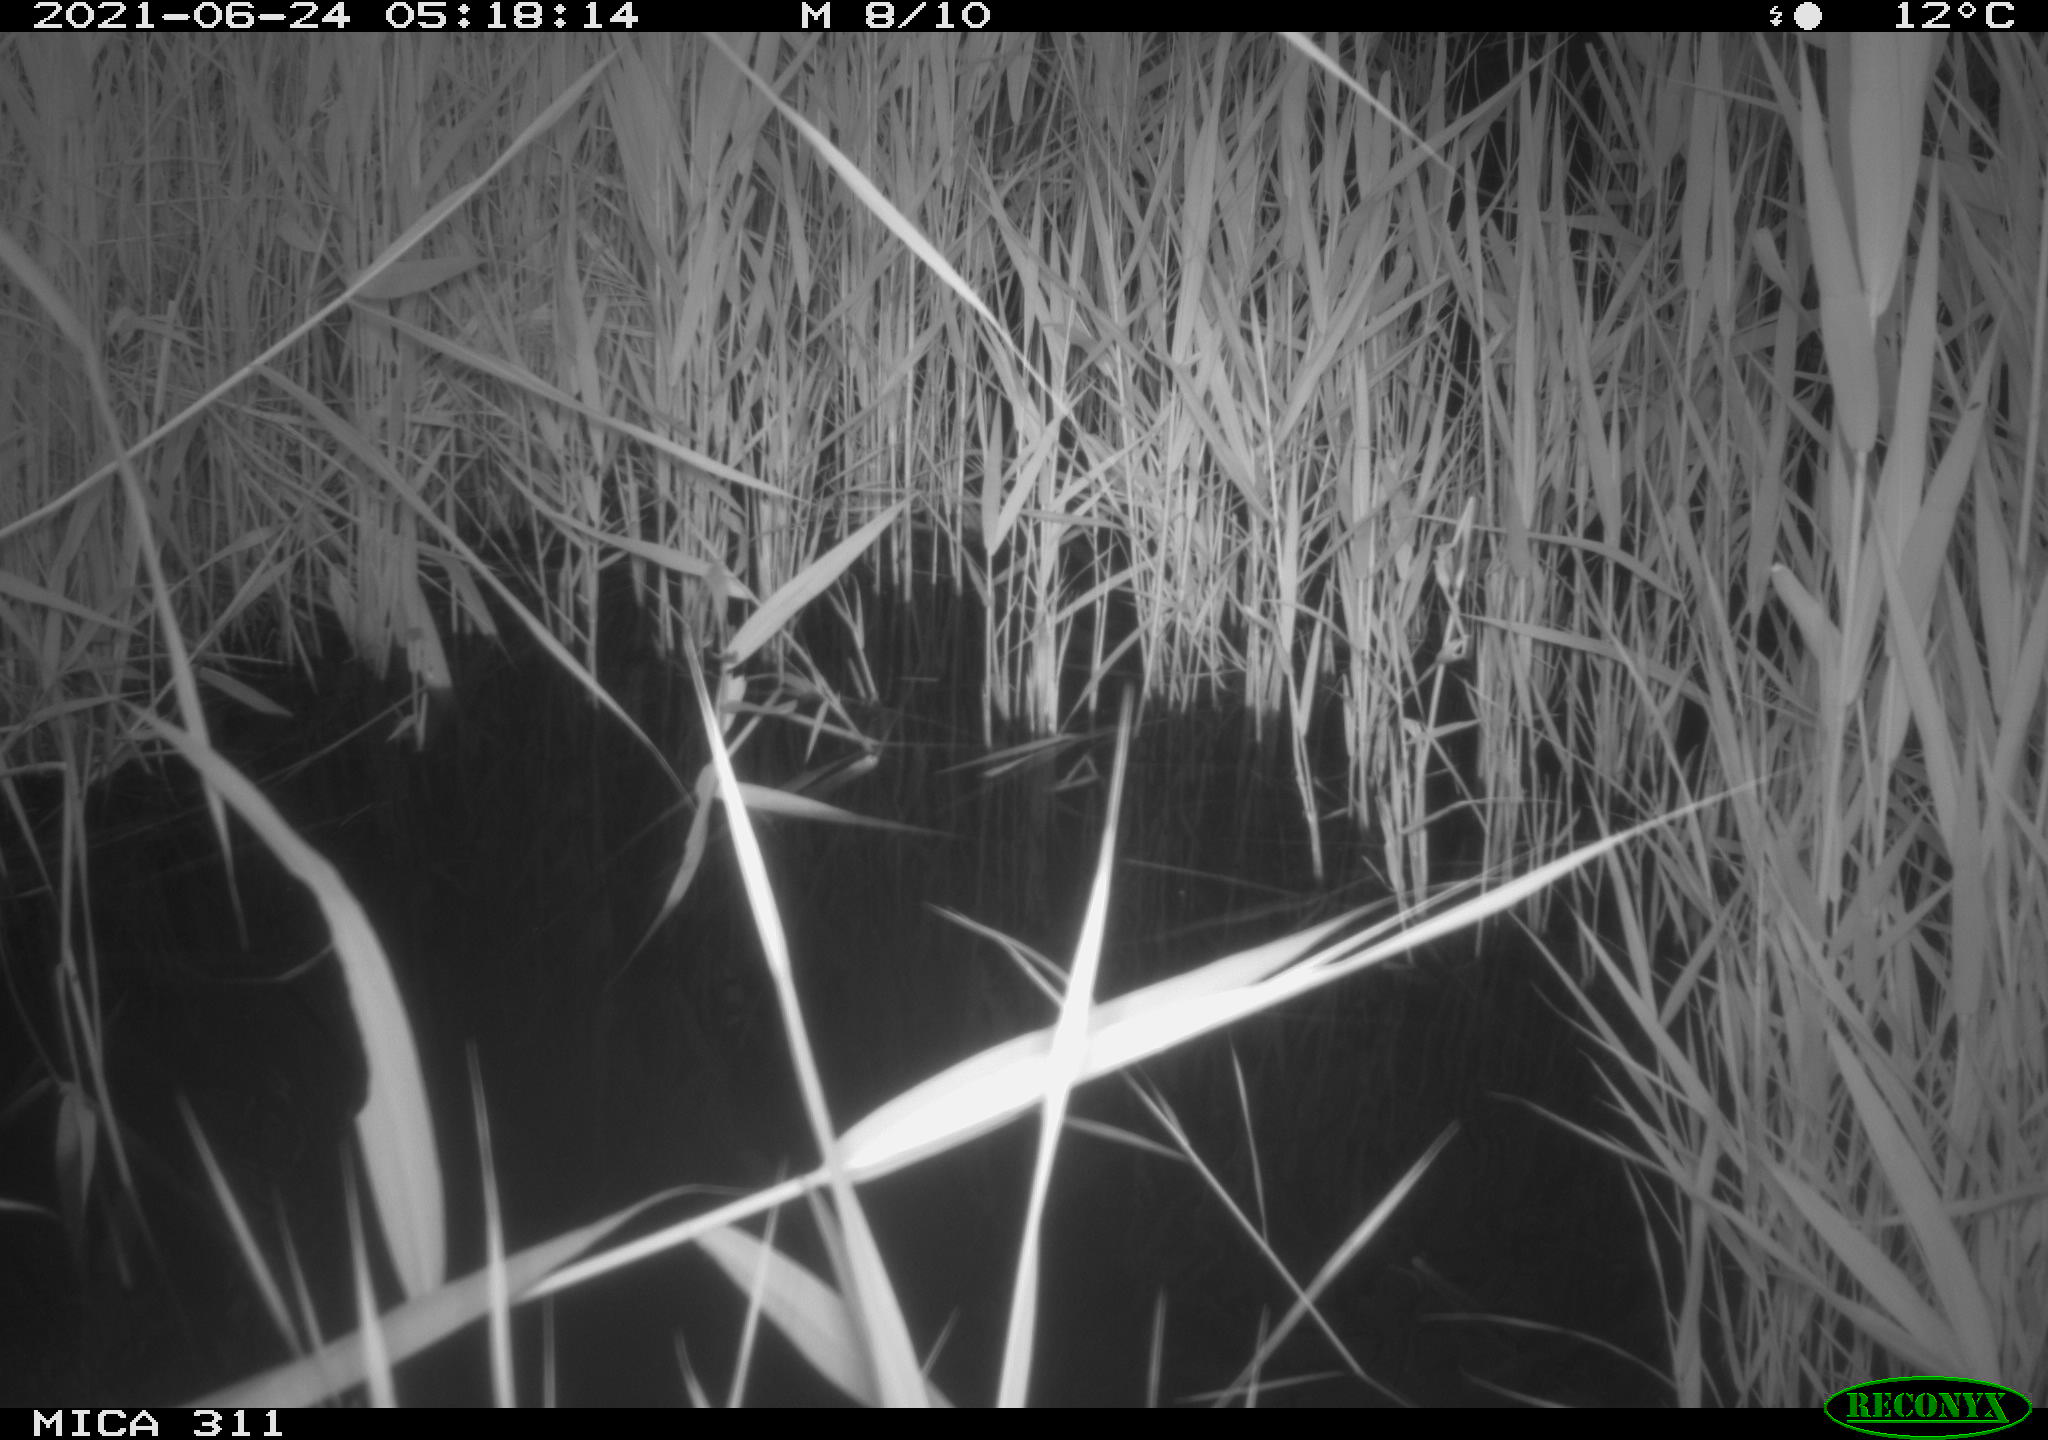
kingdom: Animalia
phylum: Chordata
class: Aves
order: Gruiformes
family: Rallidae
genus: Gallinula
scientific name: Gallinula chloropus
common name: Common moorhen
